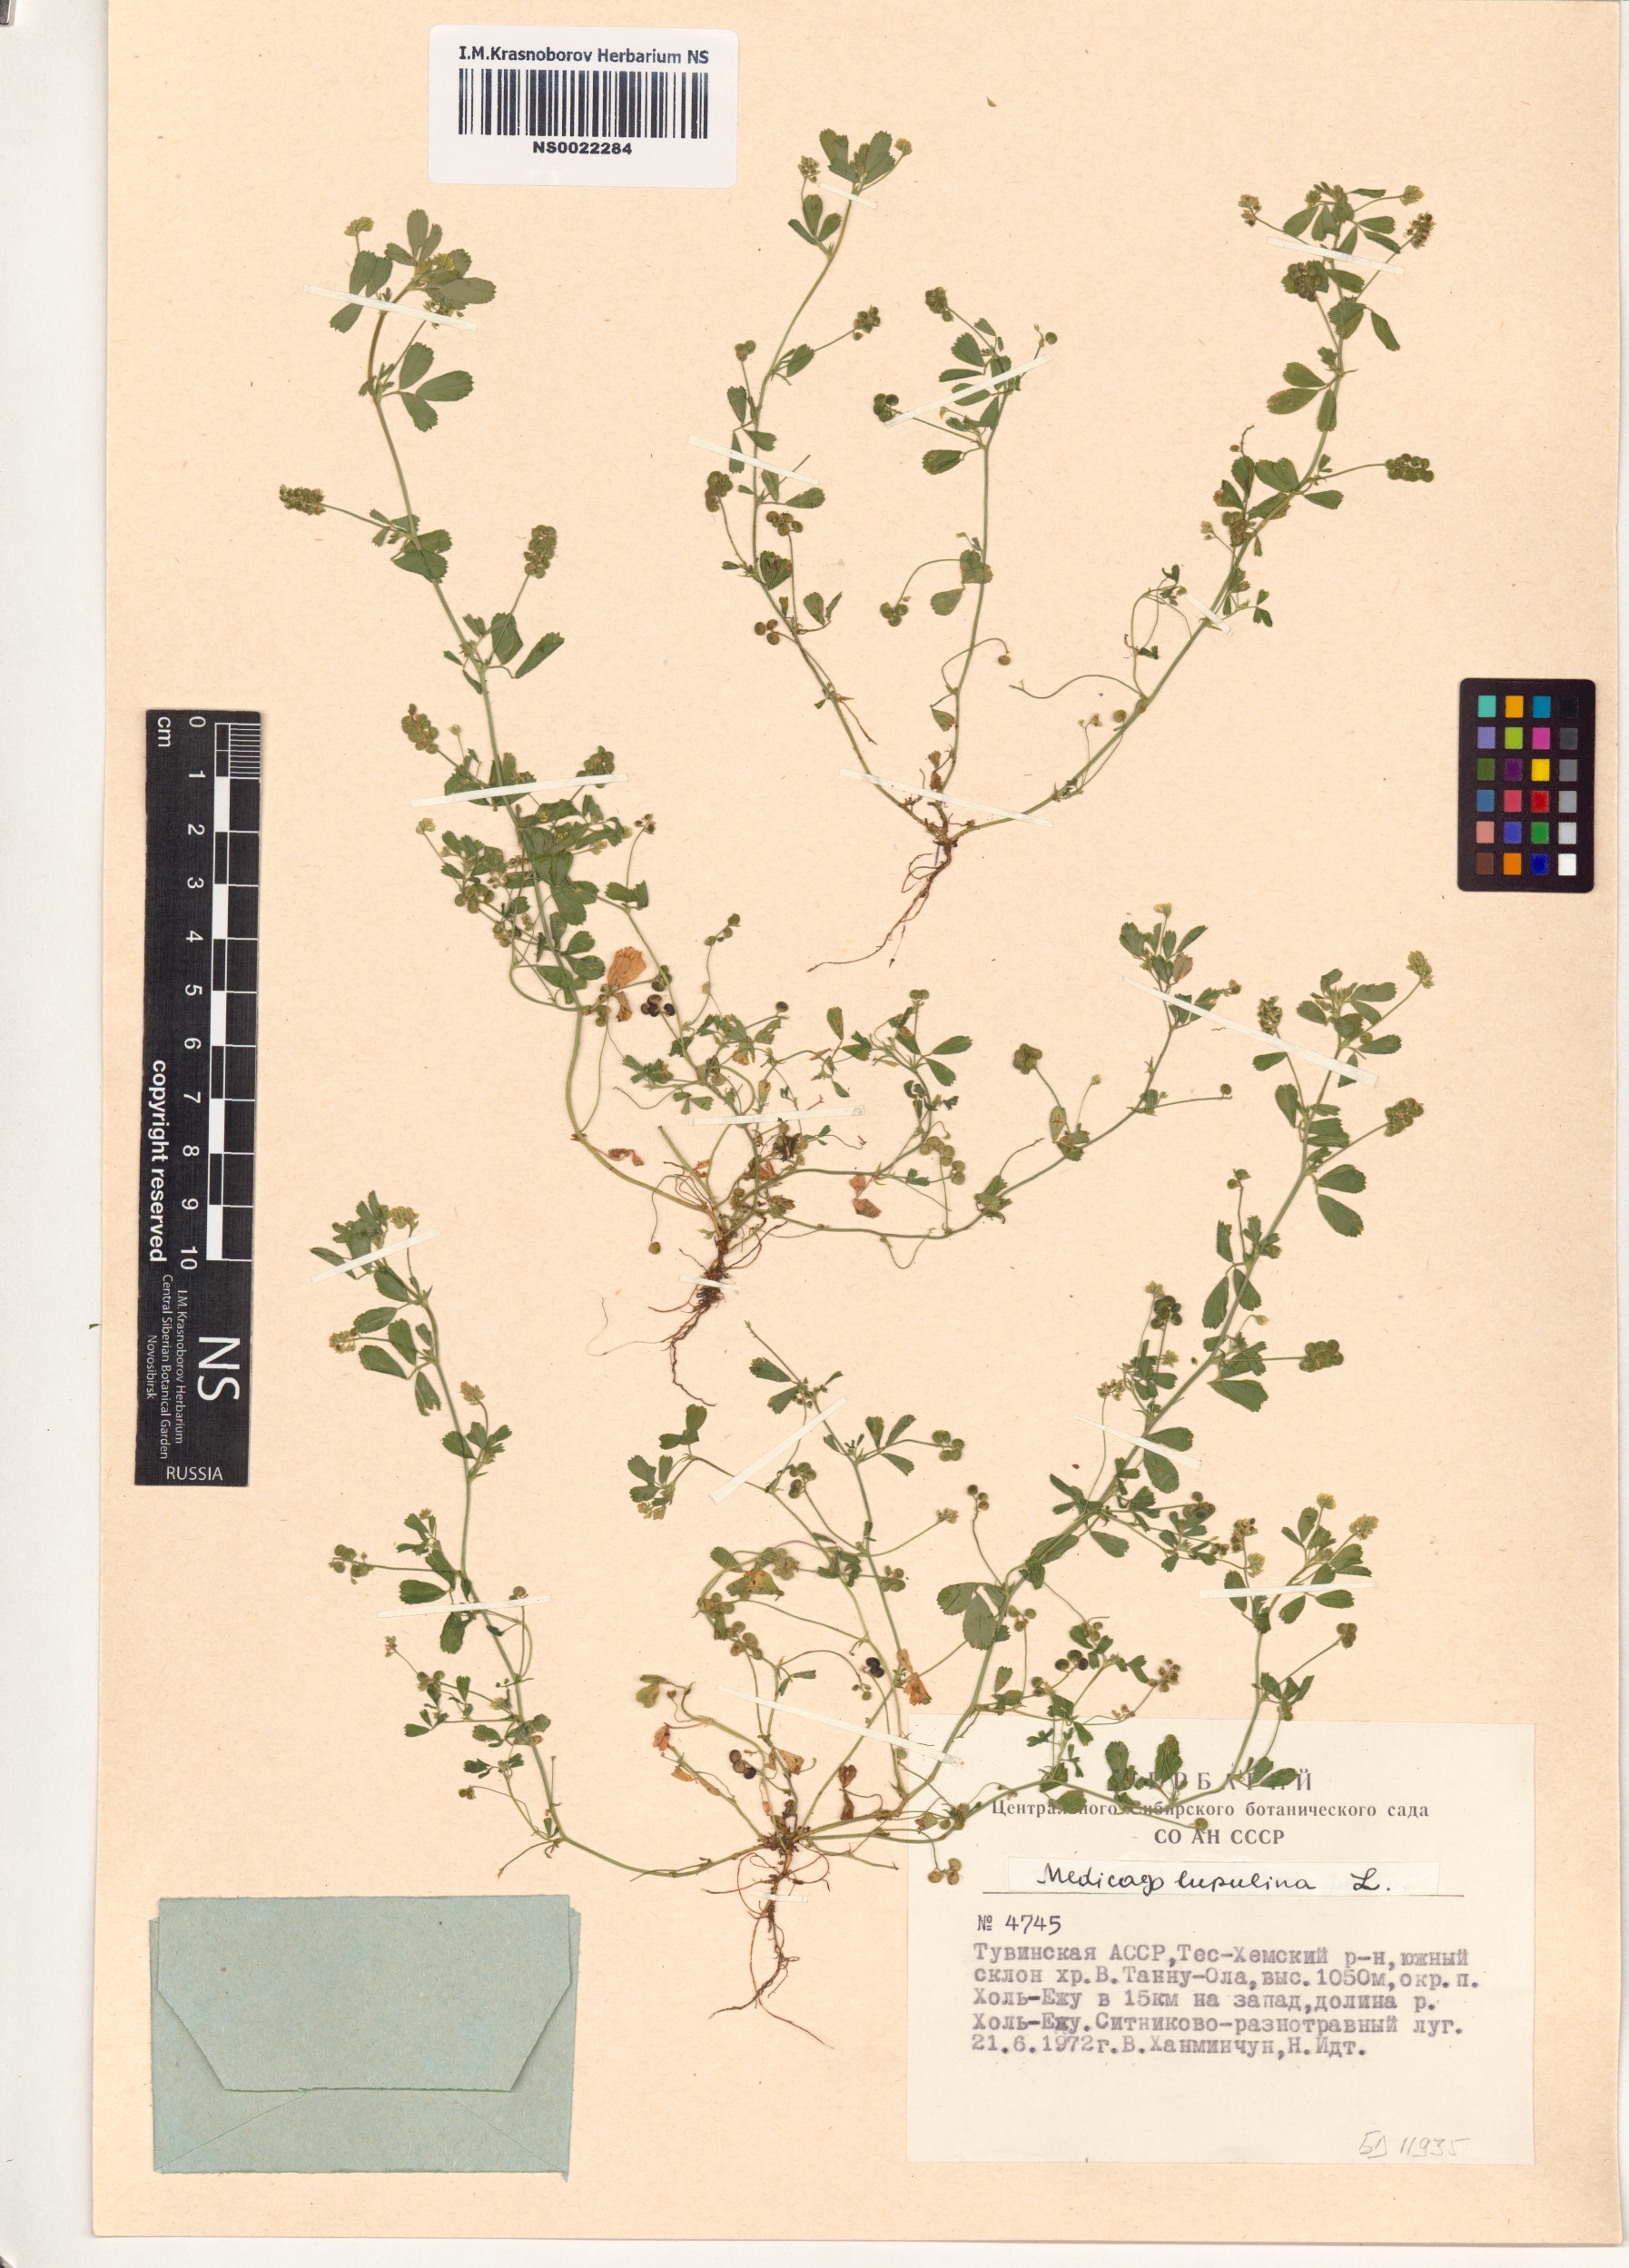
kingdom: Plantae
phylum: Tracheophyta
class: Magnoliopsida
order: Fabales
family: Fabaceae
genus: Medicago
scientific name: Medicago lupulina
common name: Black medick
